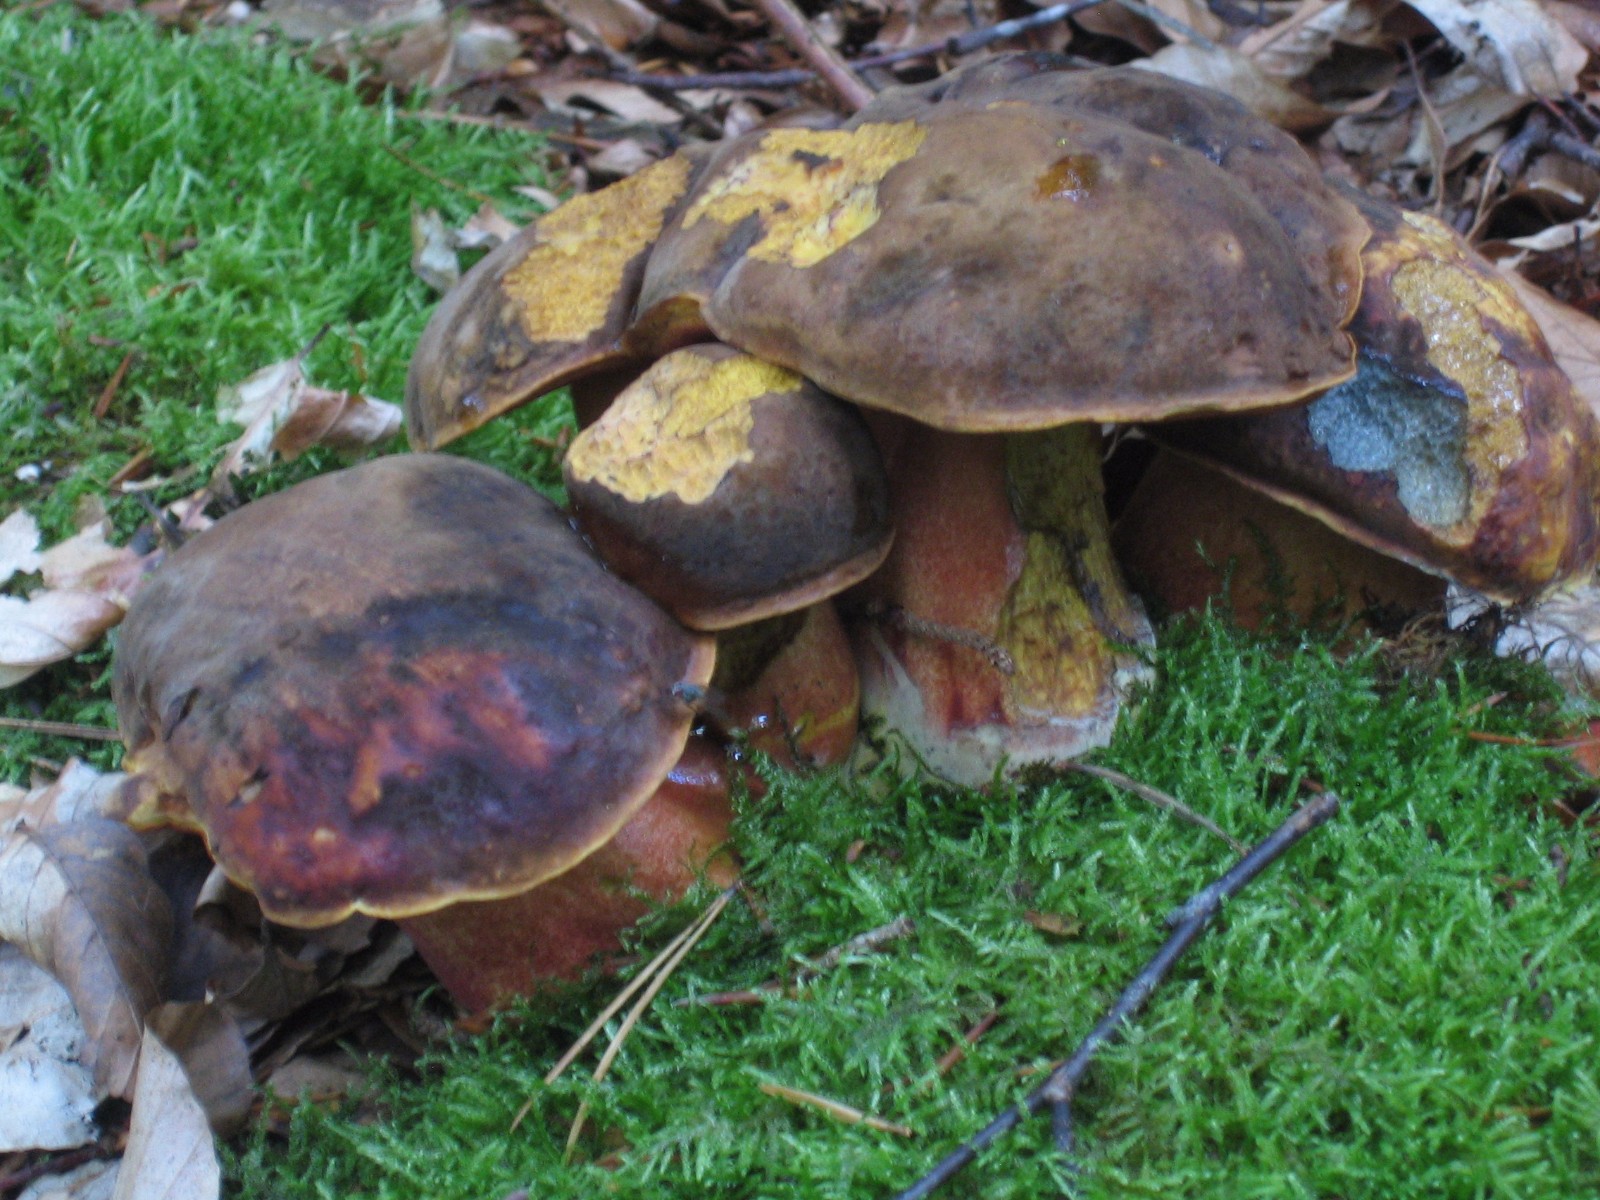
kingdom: Fungi
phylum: Basidiomycota
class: Agaricomycetes
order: Boletales
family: Boletaceae
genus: Neoboletus
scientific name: Neoboletus erythropus
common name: punktstokket indigorørhat
